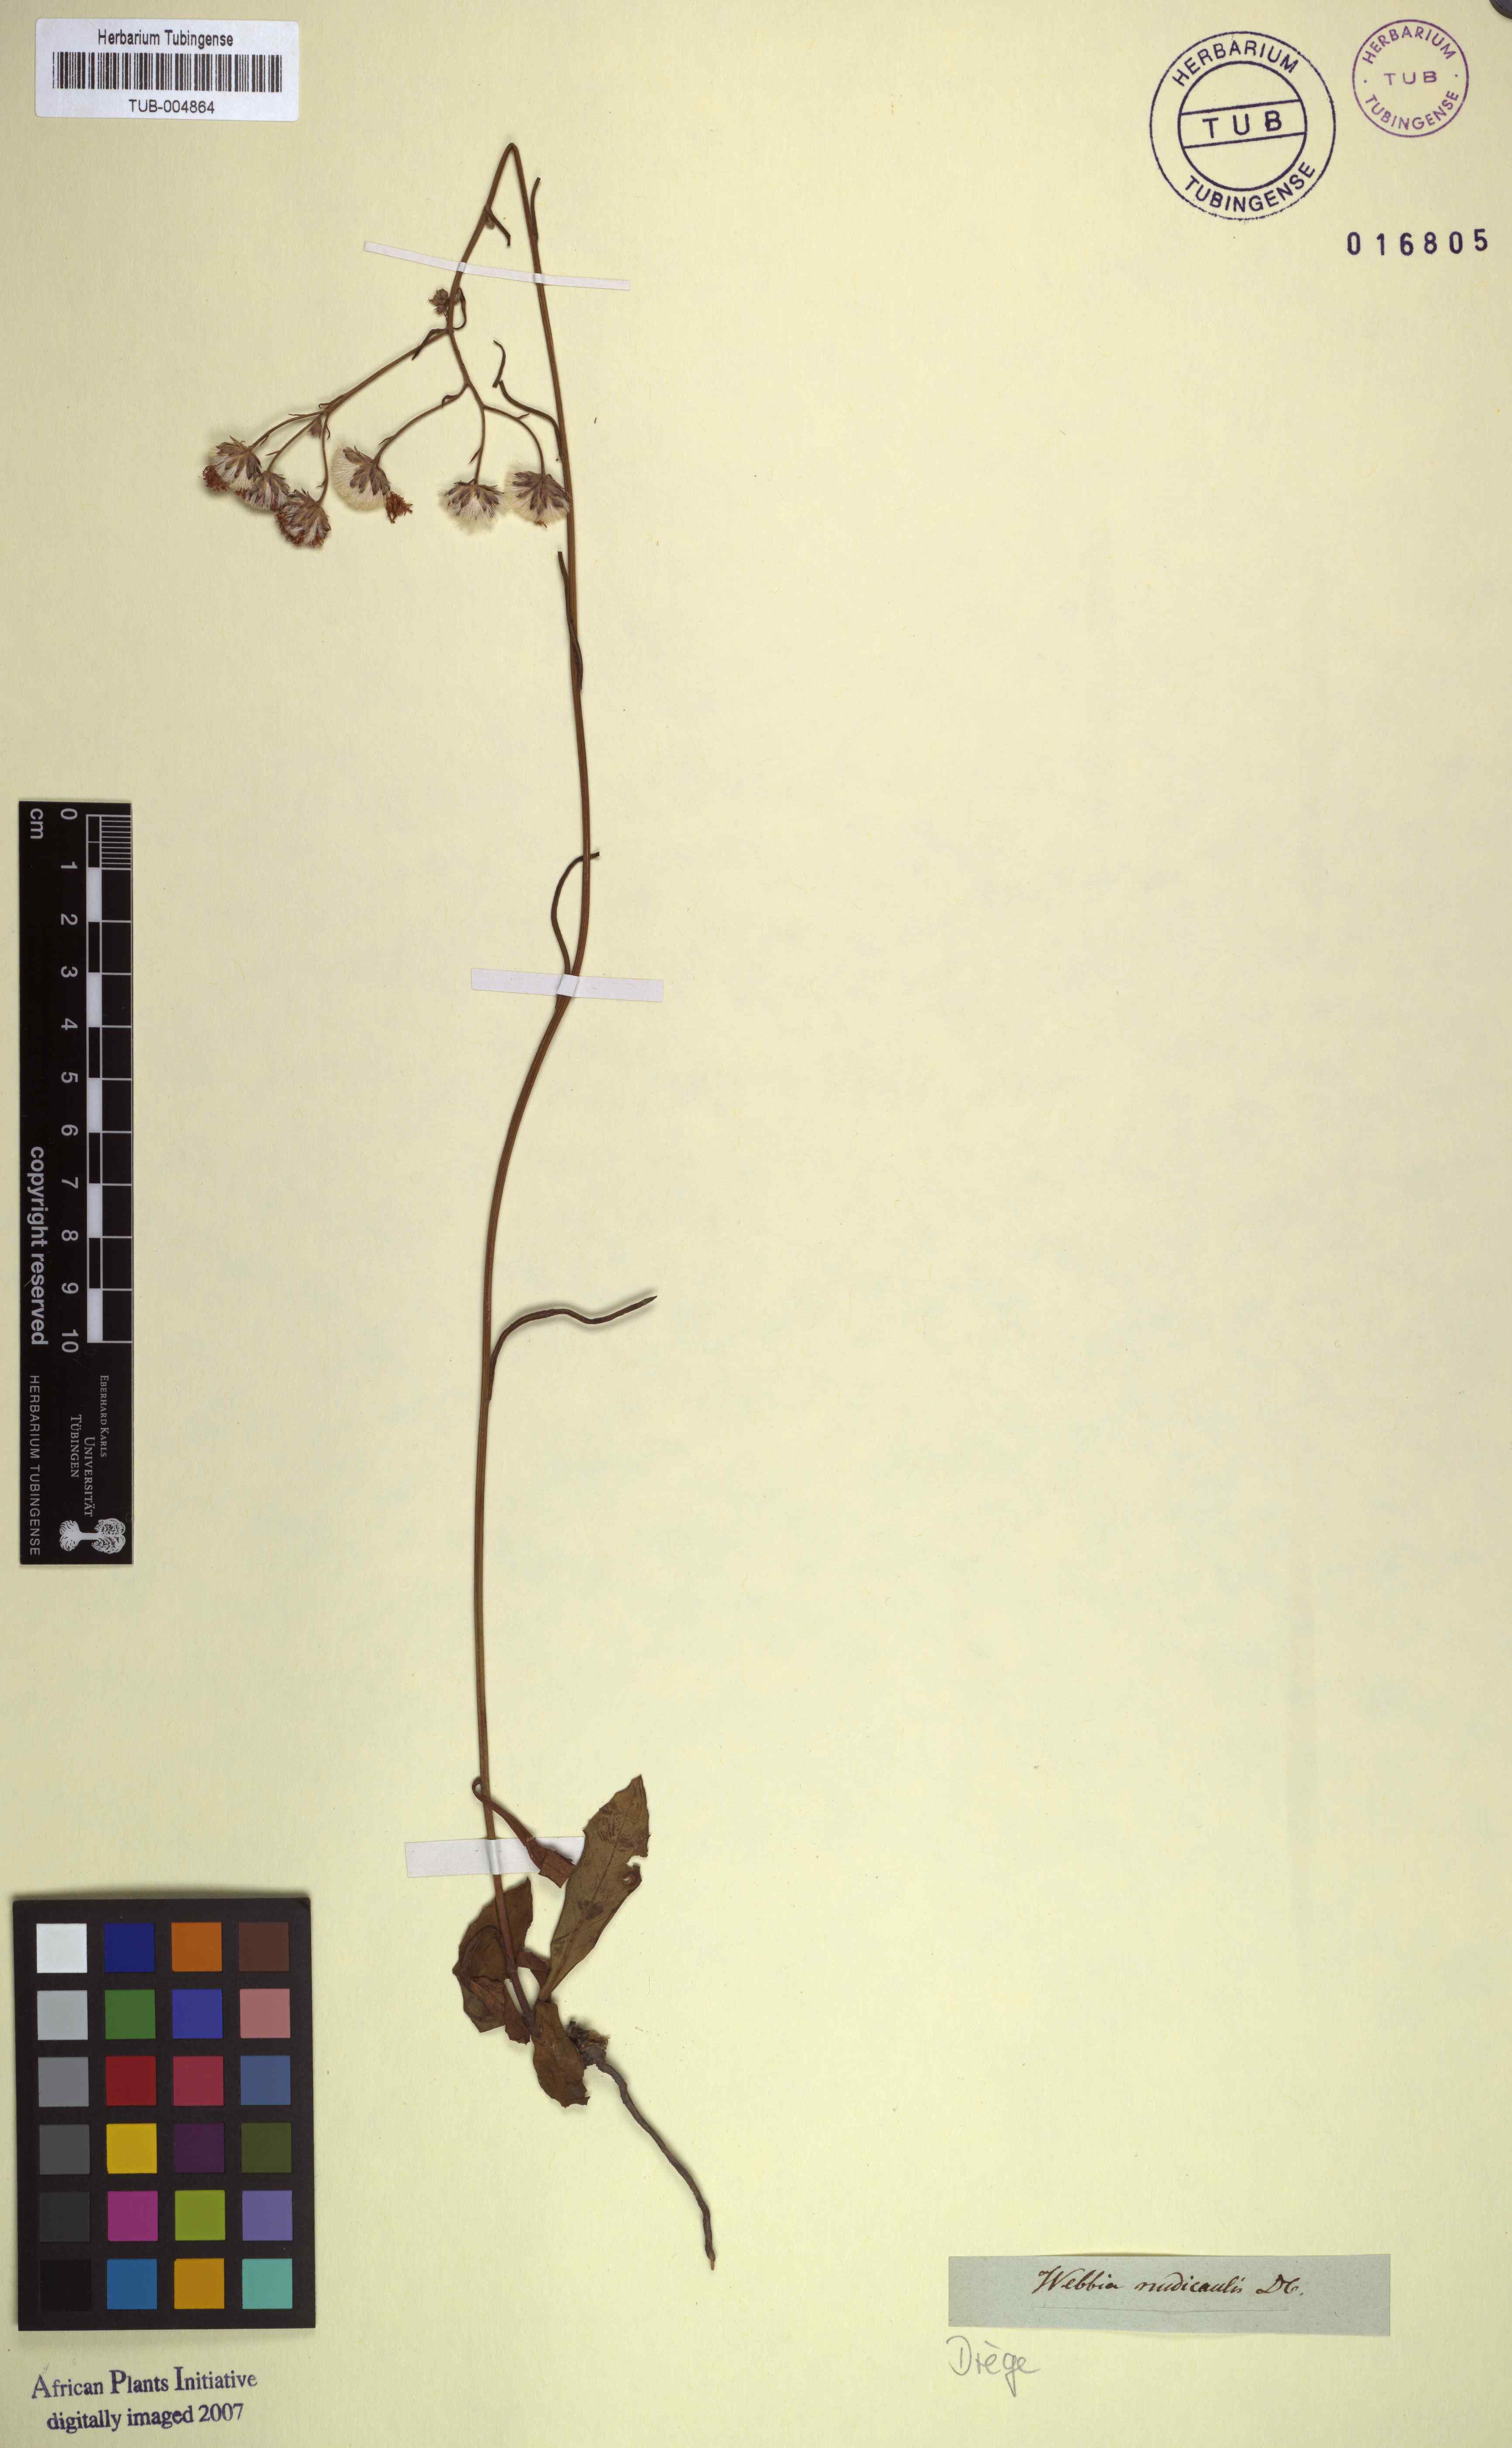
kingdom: Plantae
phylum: Tracheophyta
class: Magnoliopsida
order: Asterales
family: Asteraceae
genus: Vernonia
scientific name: Vernonia dregeana
